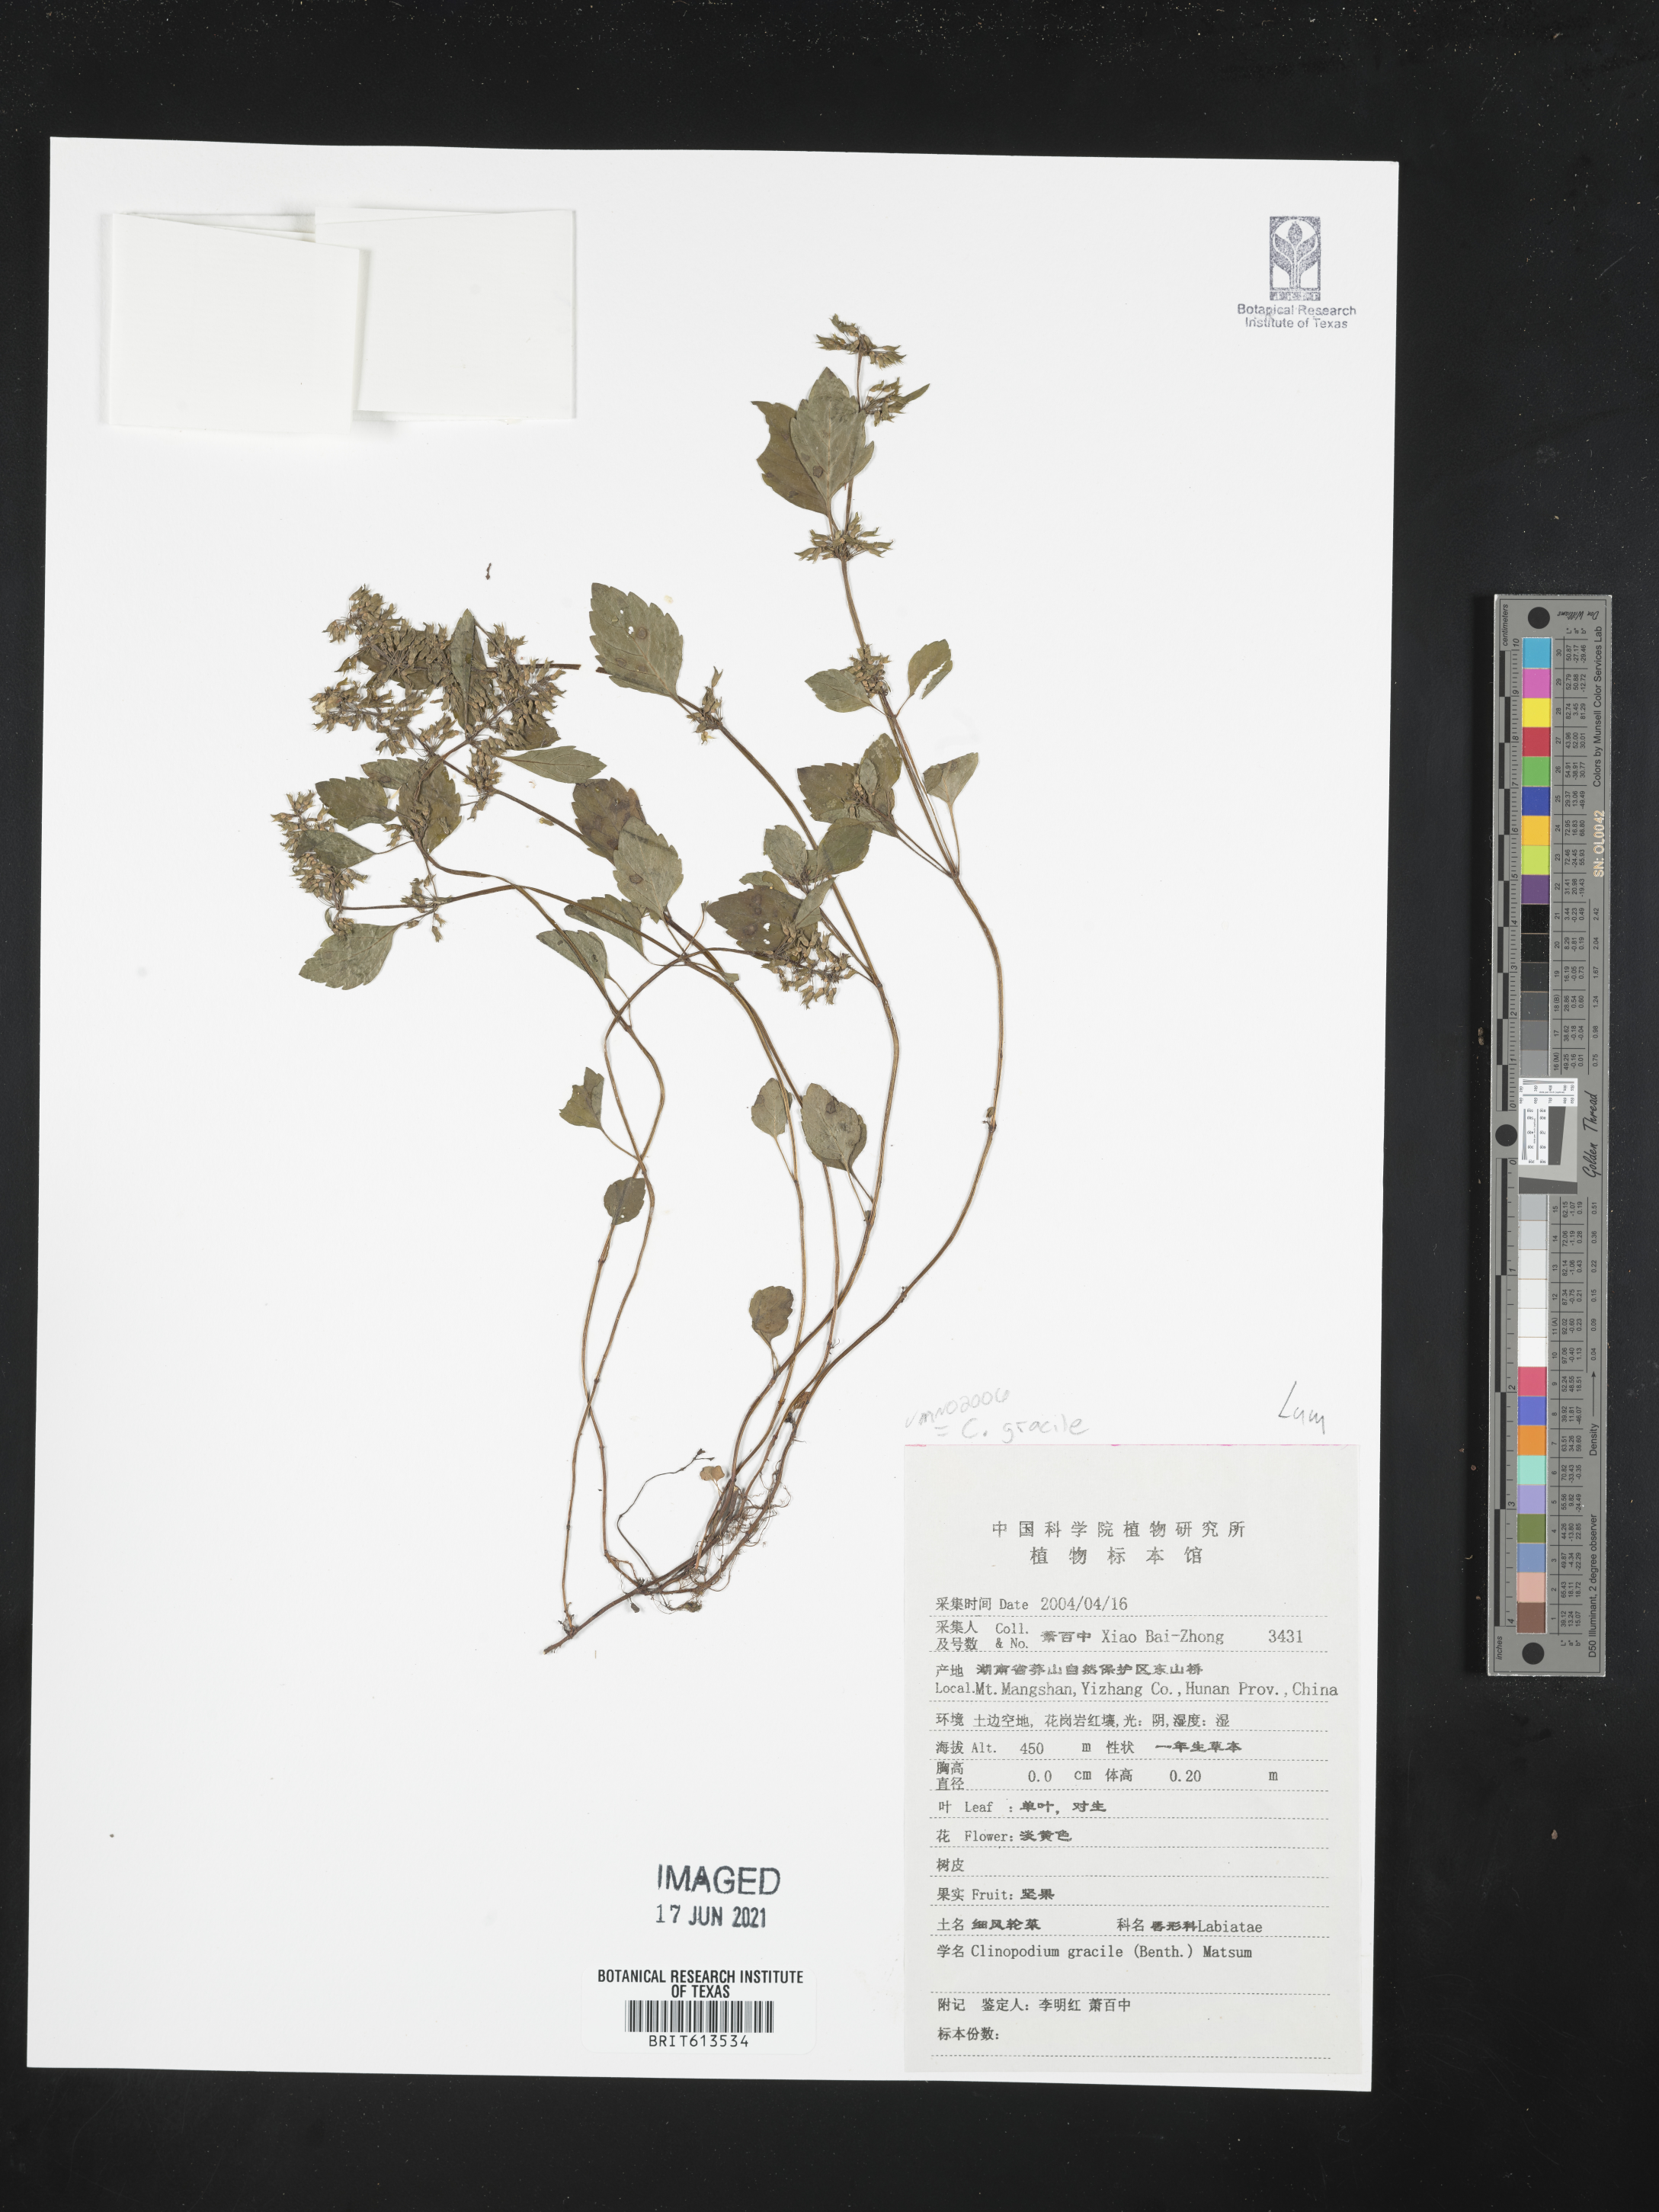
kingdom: Plantae
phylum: Tracheophyta
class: Magnoliopsida
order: Lamiales
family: Lamiaceae
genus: Clinopodium
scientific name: Clinopodium gracile
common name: Slender wild basil
